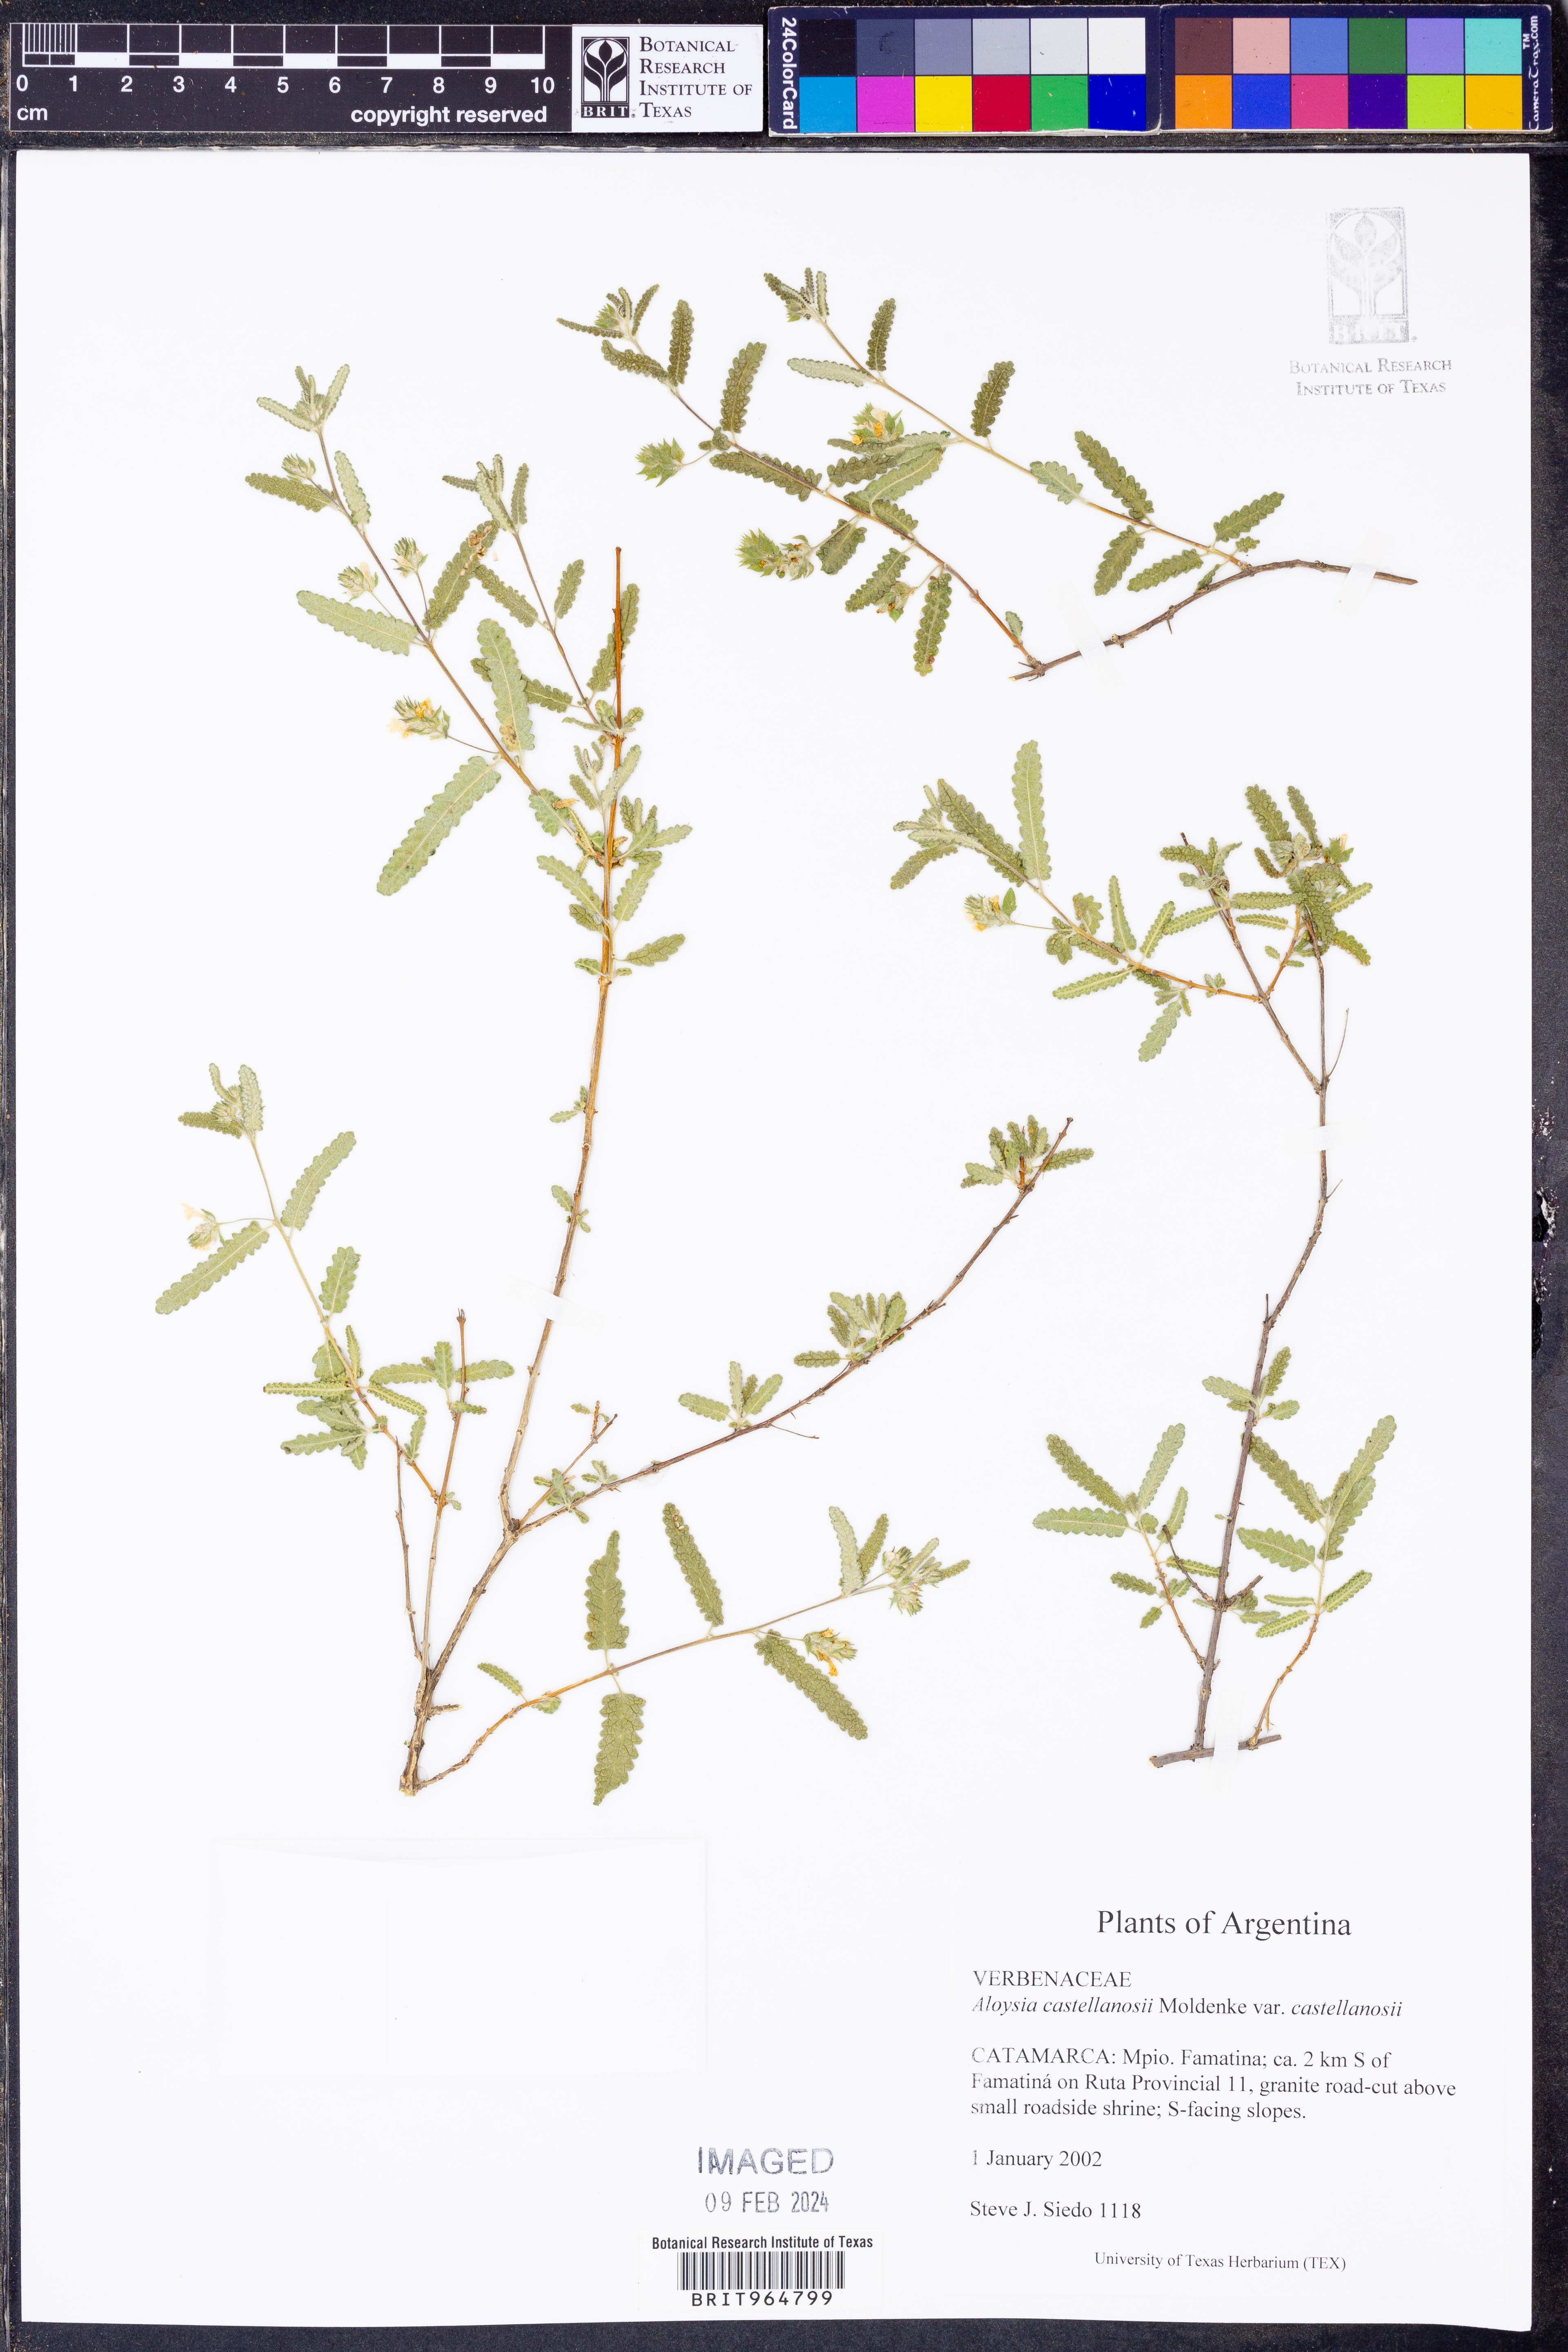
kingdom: Plantae
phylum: Tracheophyta
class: Magnoliopsida
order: Lamiales
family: Verbenaceae
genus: Aloysia
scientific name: Aloysia
